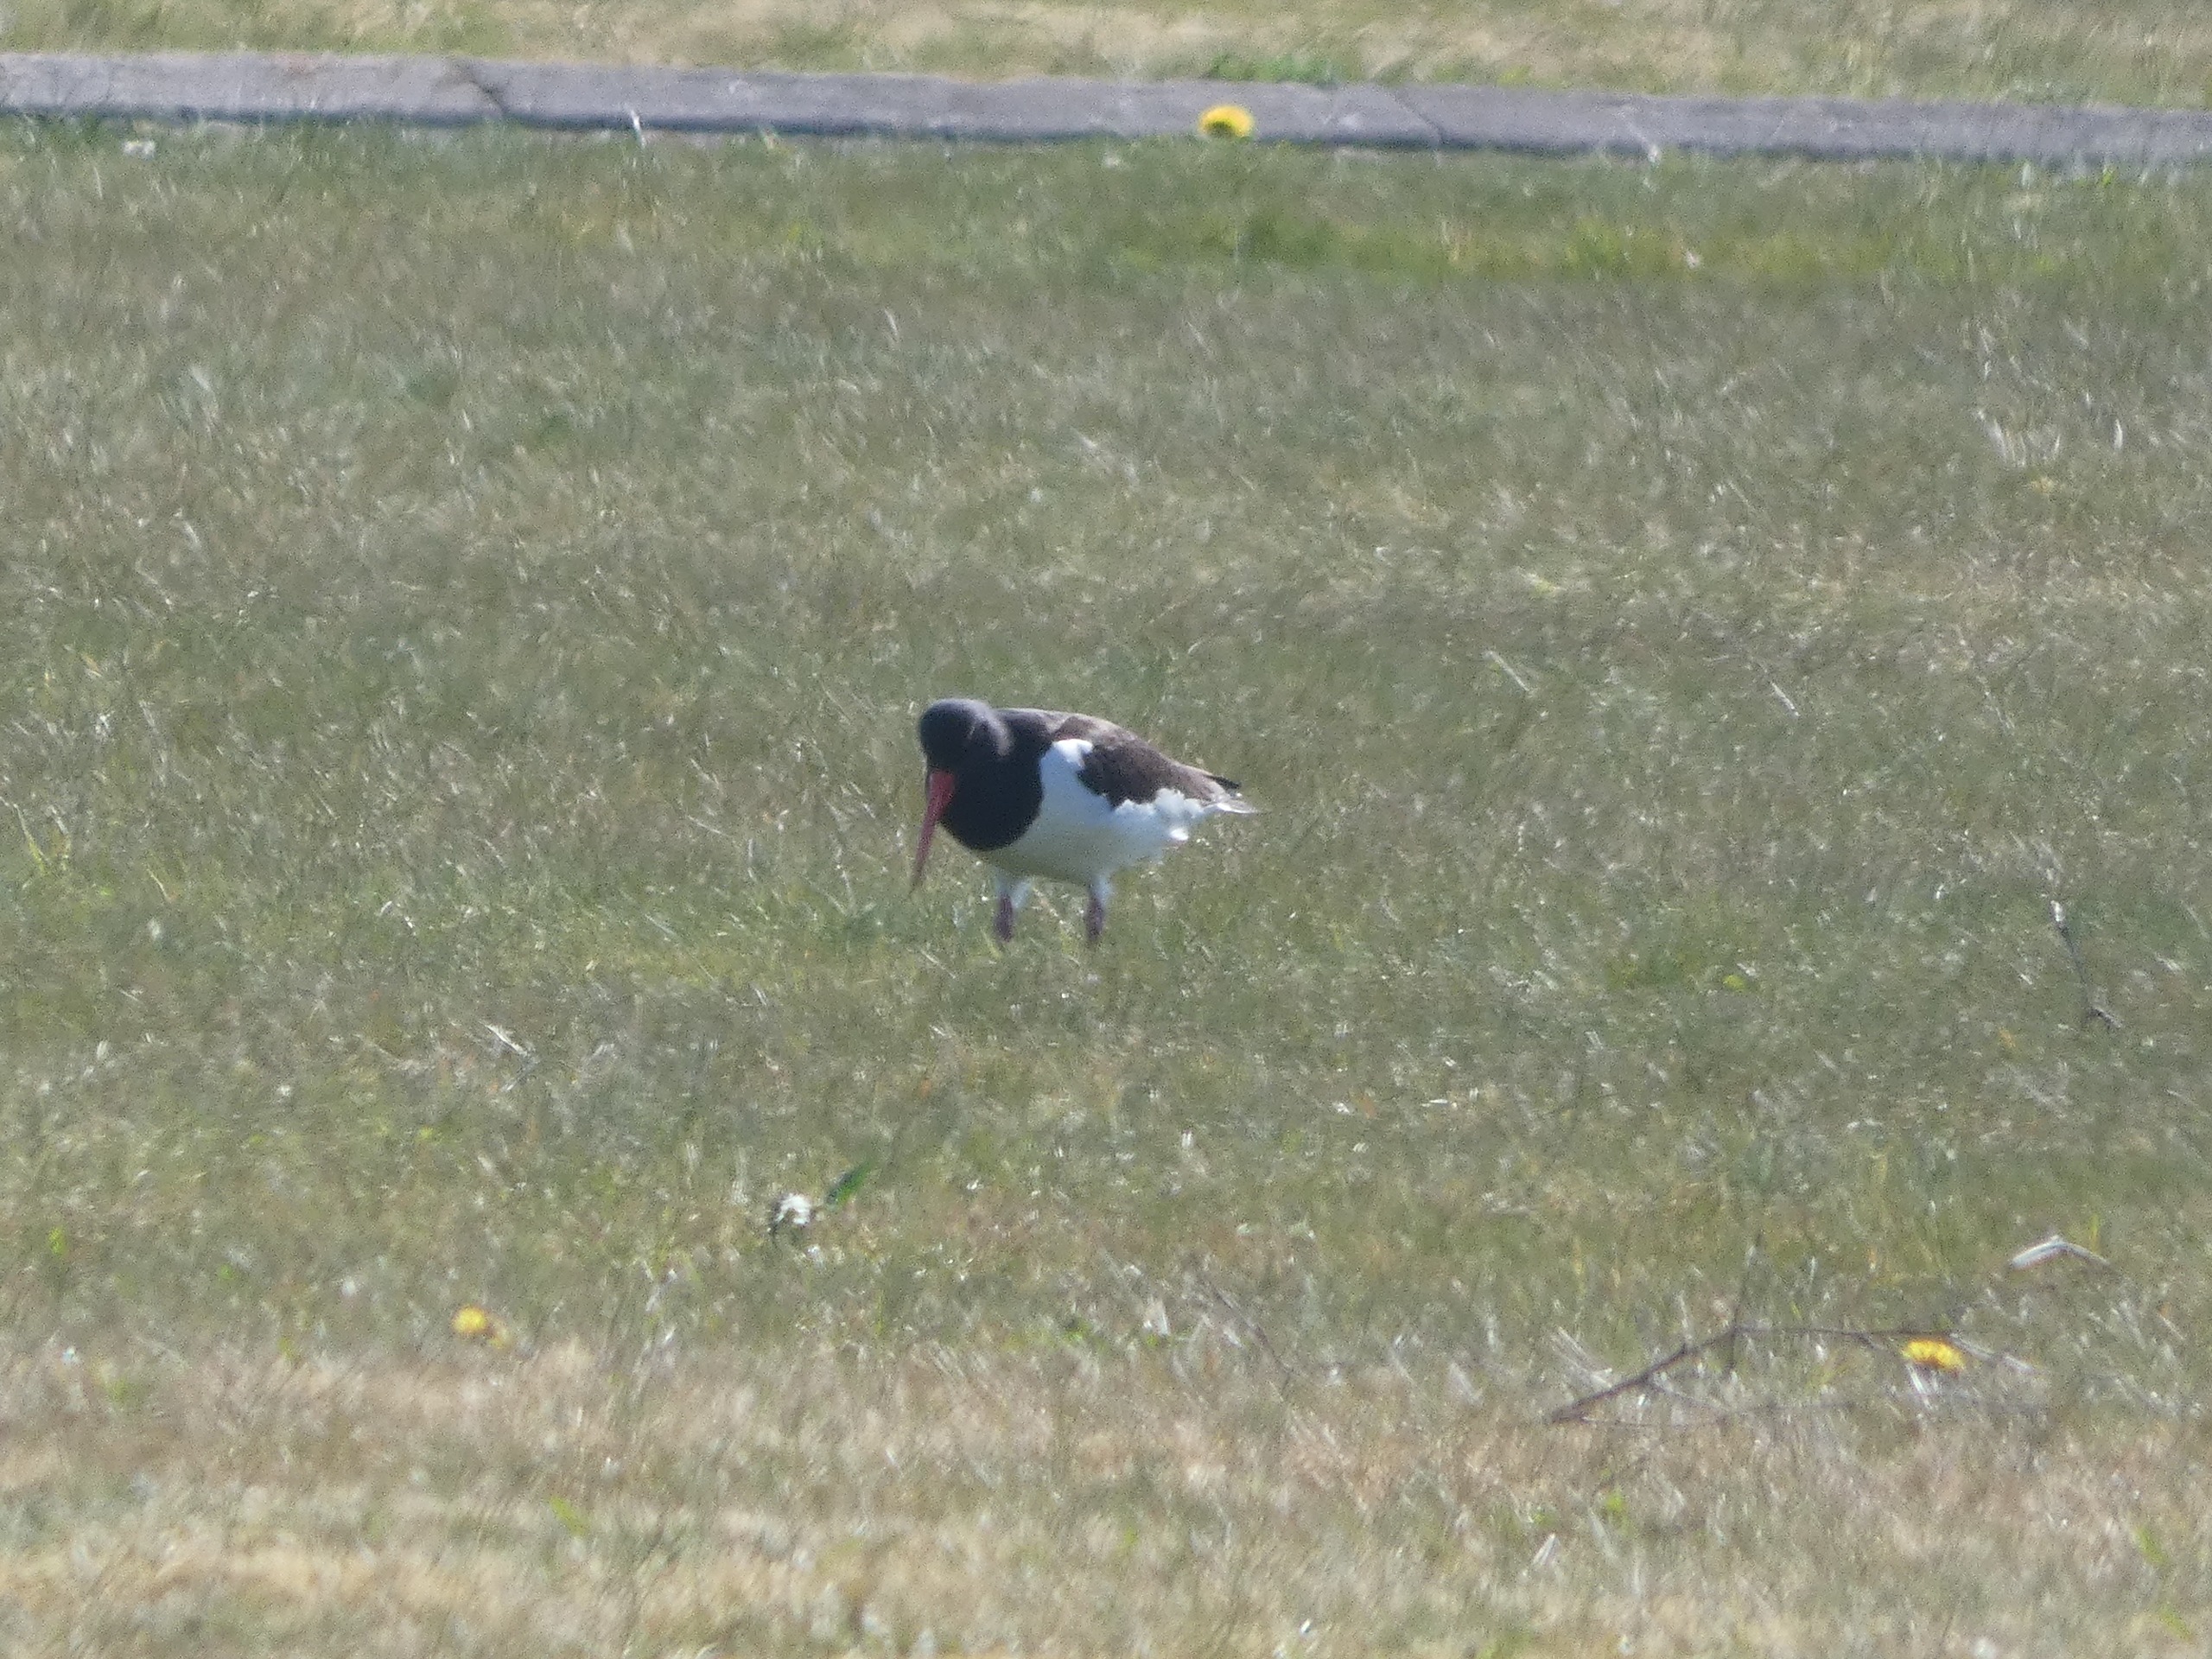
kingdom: Animalia
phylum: Chordata
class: Aves
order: Charadriiformes
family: Haematopodidae
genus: Haematopus
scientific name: Haematopus ostralegus
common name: Strandskade
